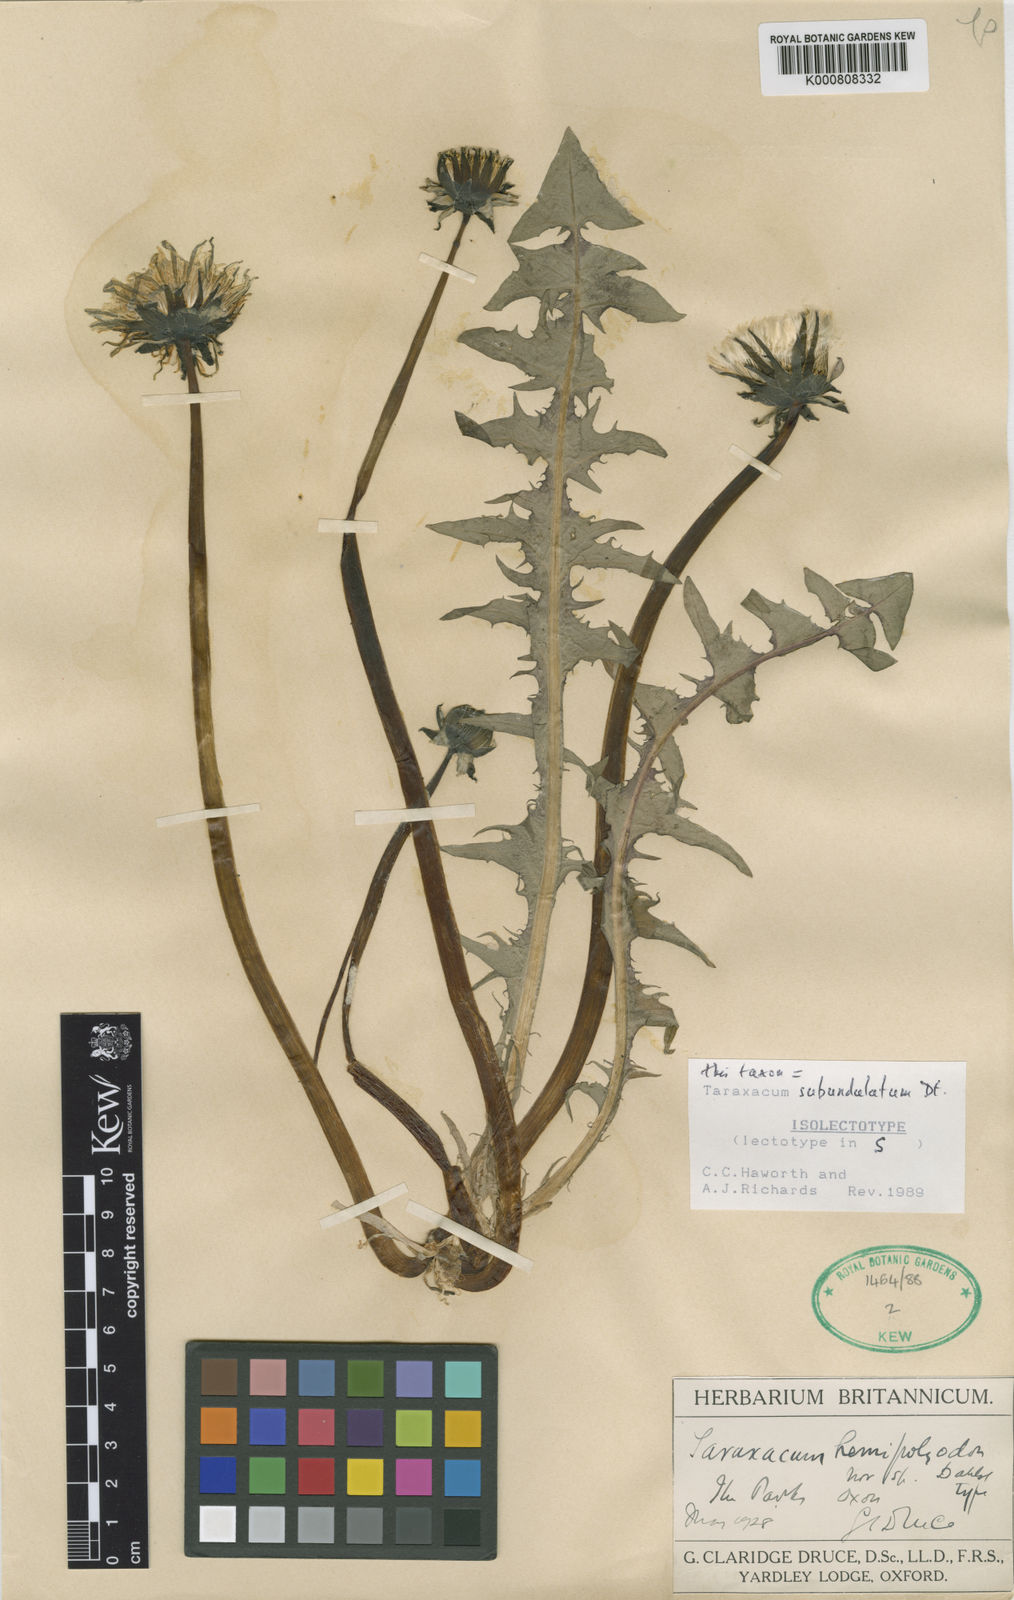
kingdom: Plantae
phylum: Tracheophyta
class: Magnoliopsida
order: Asterales
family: Asteraceae
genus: Taraxacum
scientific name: Taraxacum subundulatum
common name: Complex-leaved dandelion
